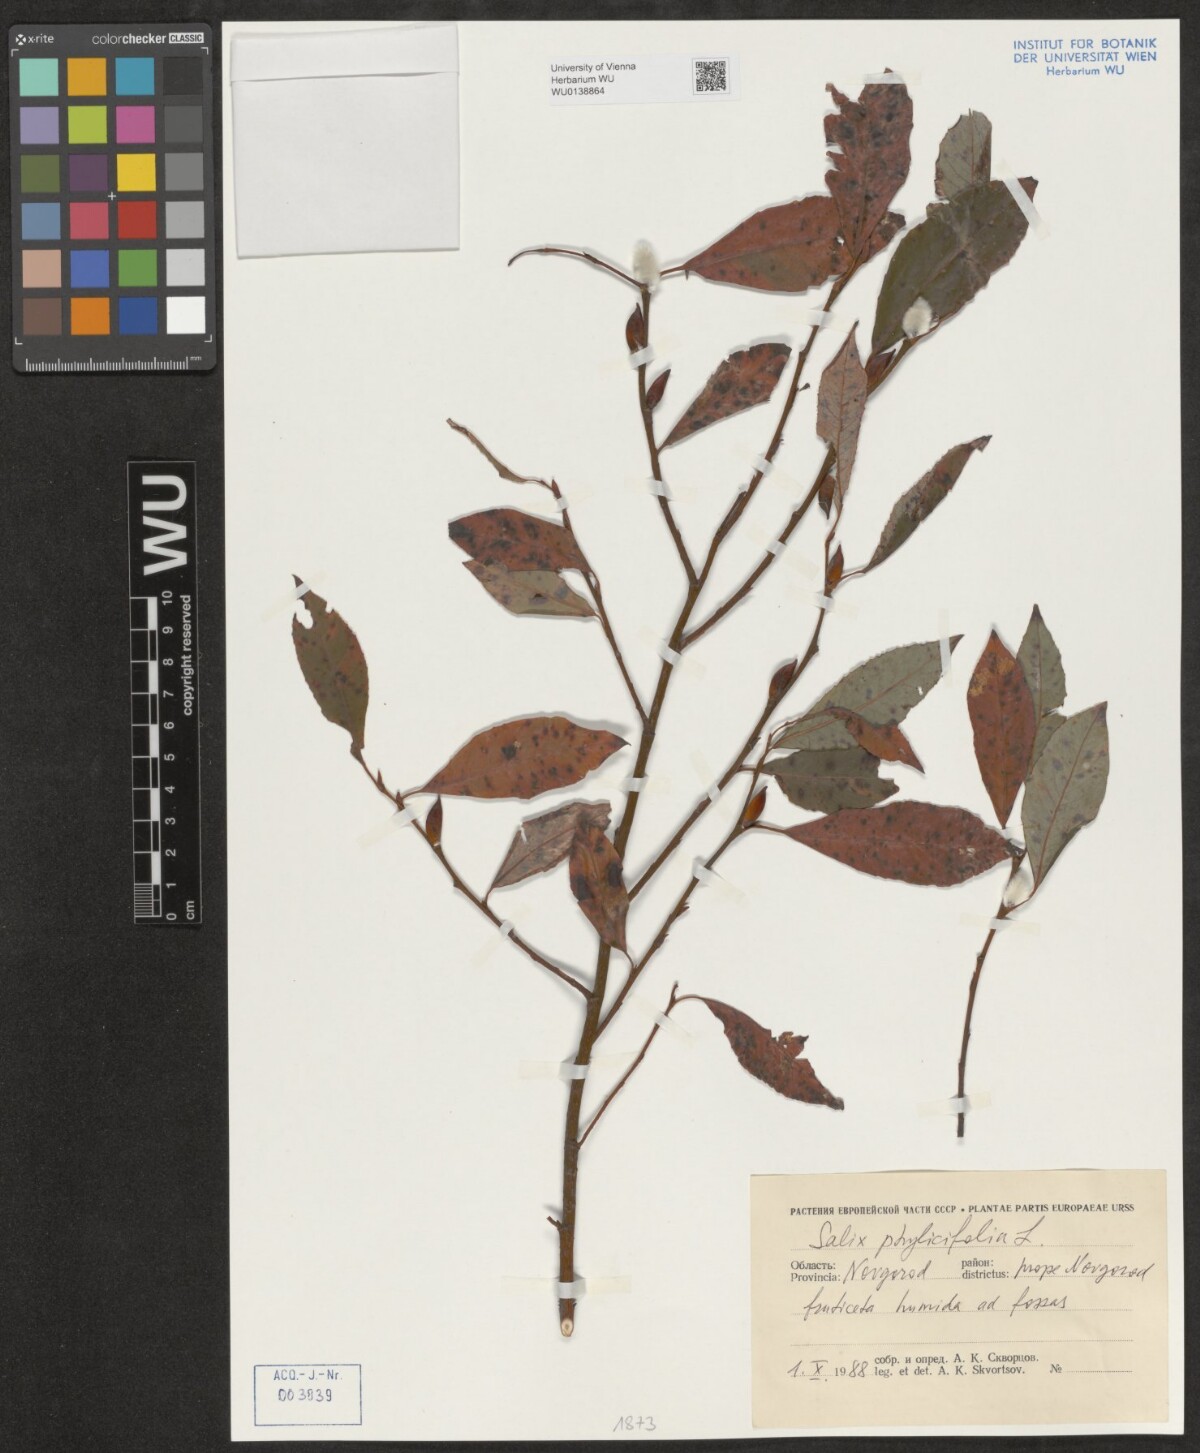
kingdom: Plantae
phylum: Tracheophyta
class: Magnoliopsida
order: Malpighiales
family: Salicaceae
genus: Salix
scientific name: Salix phylicifolia
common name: Tea-leaved willow
